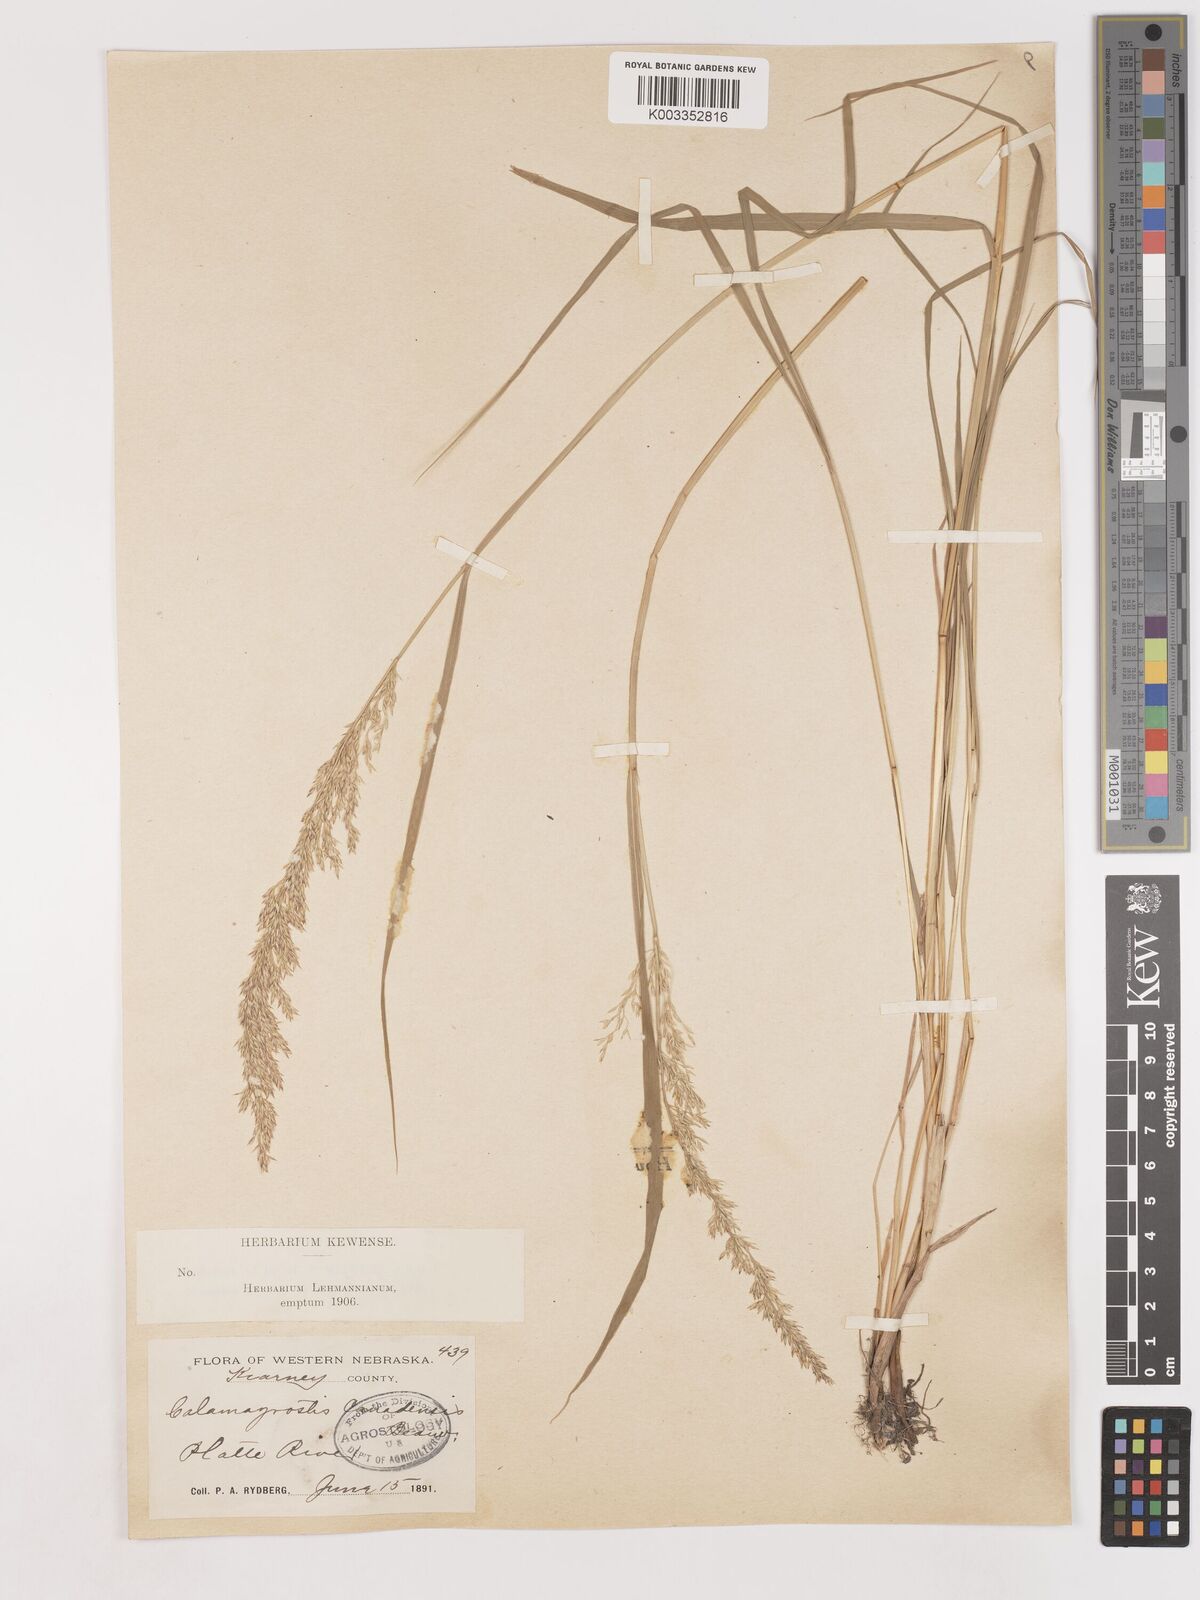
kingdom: Plantae
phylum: Tracheophyta
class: Liliopsida
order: Poales
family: Poaceae
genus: Calamagrostis
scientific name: Calamagrostis canadensis
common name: Canada bluejoint
